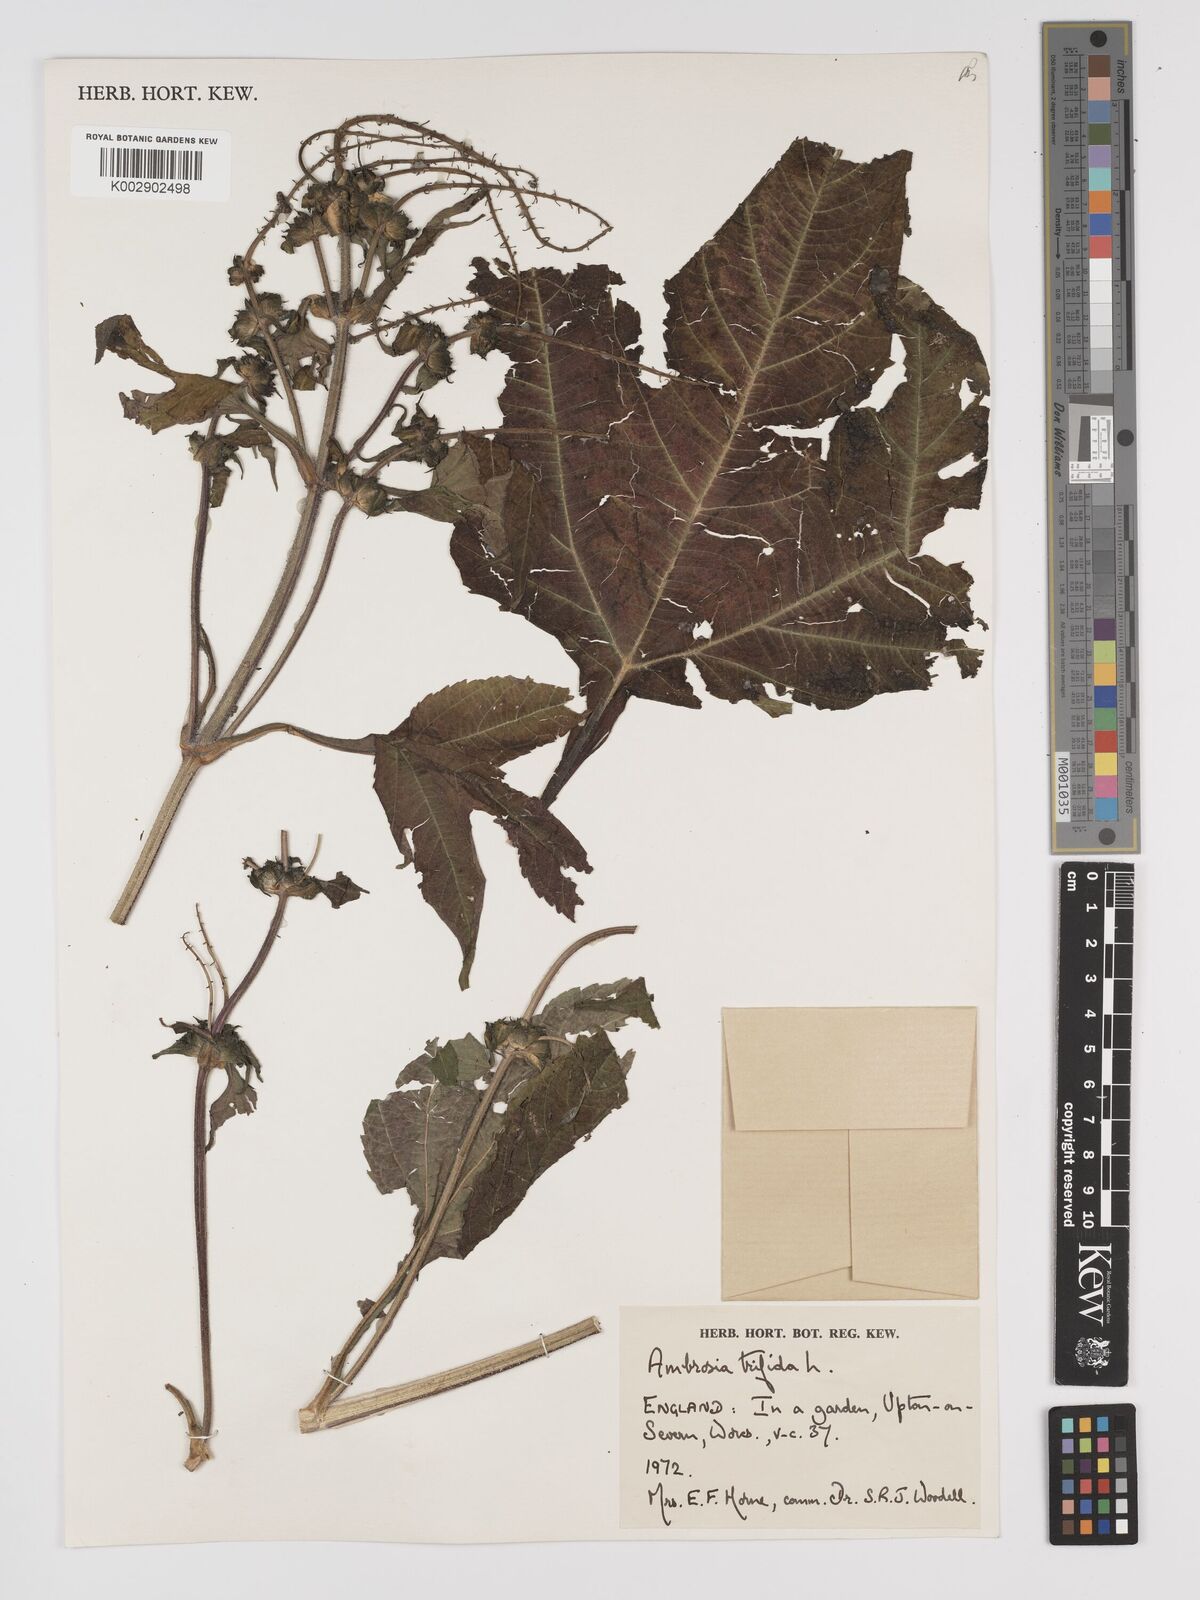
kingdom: Plantae
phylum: Tracheophyta
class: Magnoliopsida
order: Asterales
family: Asteraceae
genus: Ambrosia
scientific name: Ambrosia trifida
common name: Giant ragweed
